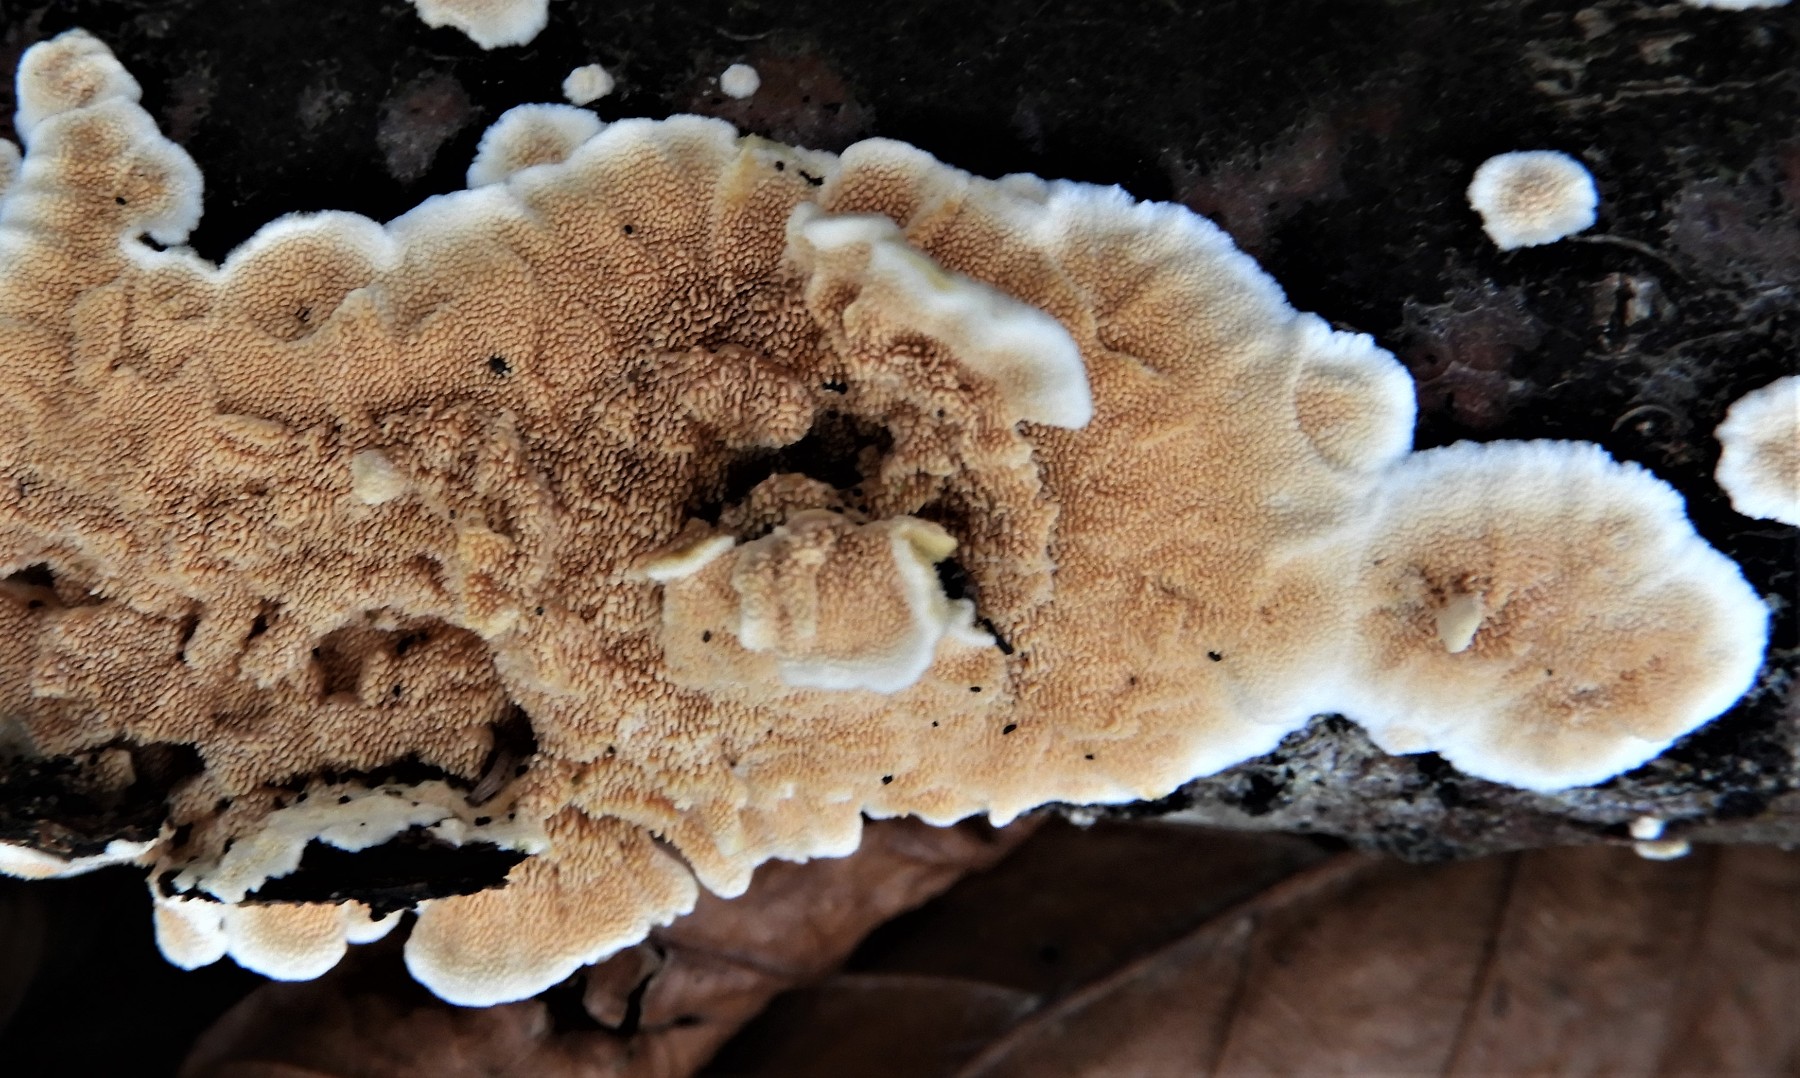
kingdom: Fungi
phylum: Basidiomycota
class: Agaricomycetes
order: Polyporales
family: Steccherinaceae
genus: Steccherinum
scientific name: Steccherinum ochraceum
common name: almindelig skønpig
